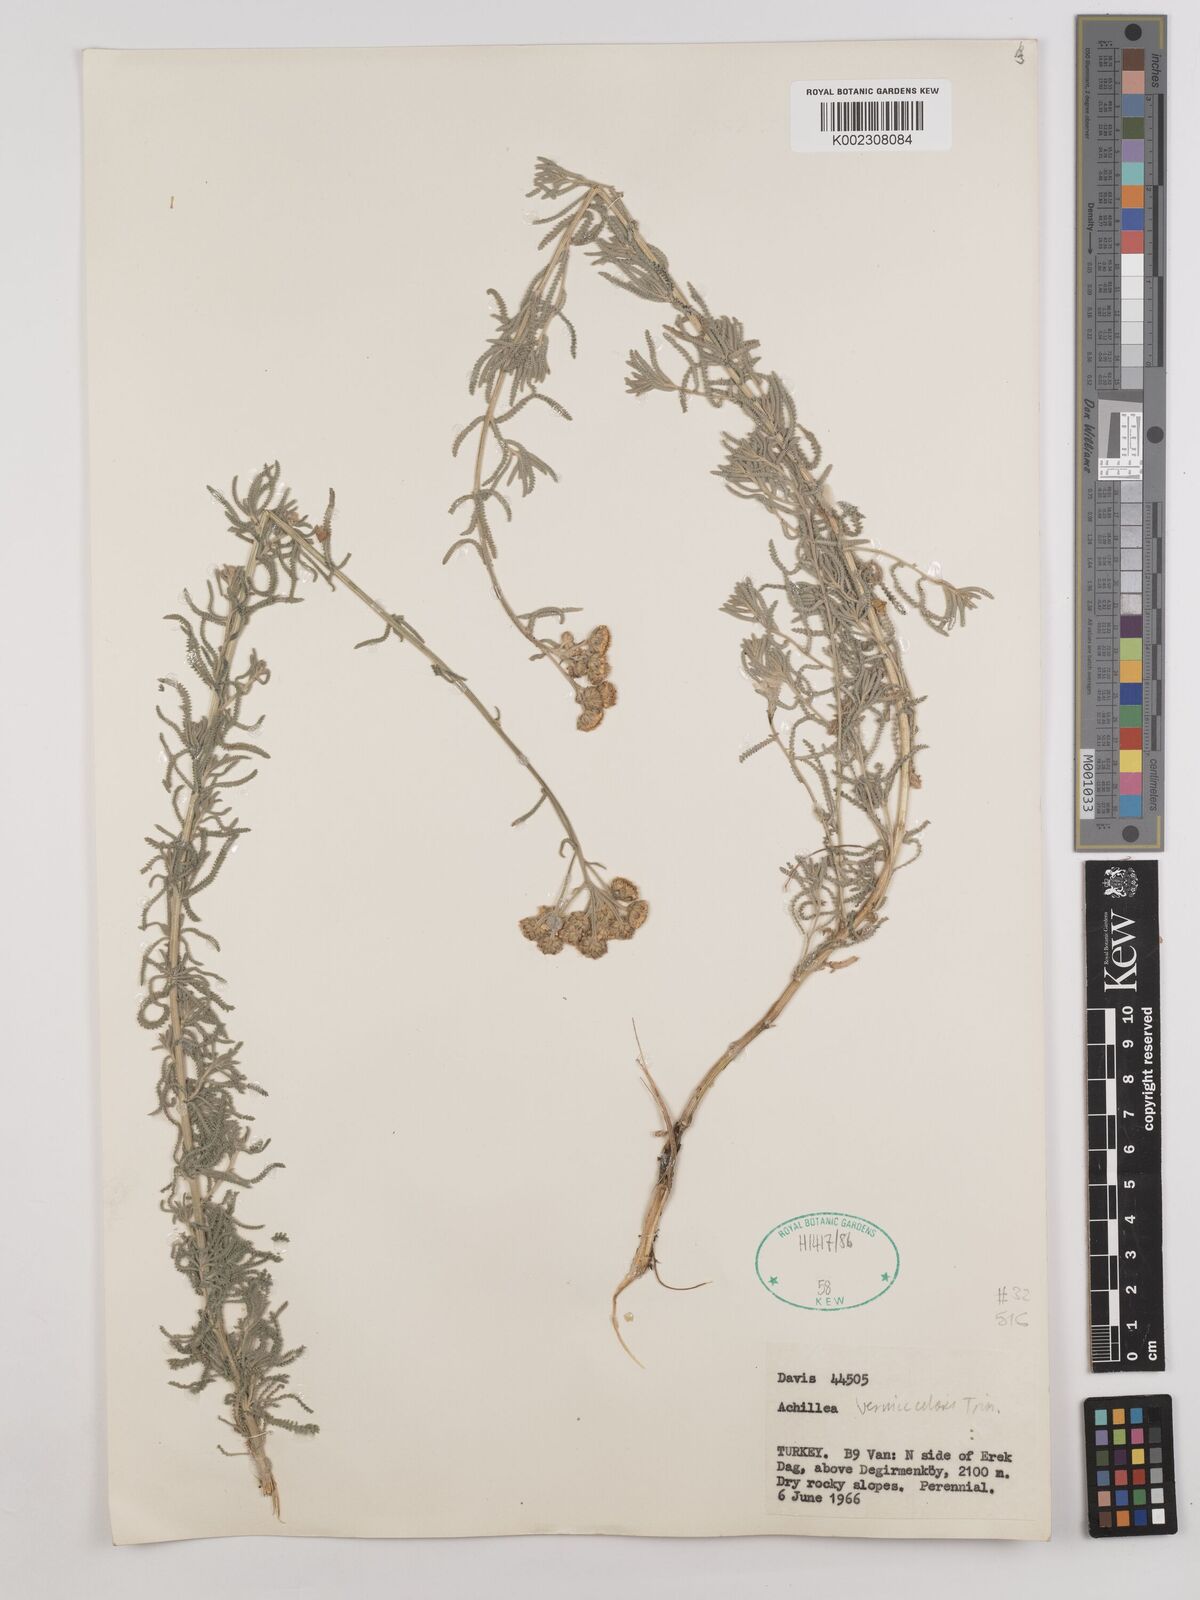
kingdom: Plantae
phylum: Tracheophyta
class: Magnoliopsida
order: Asterales
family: Asteraceae
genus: Achillea
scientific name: Achillea vermicularis
